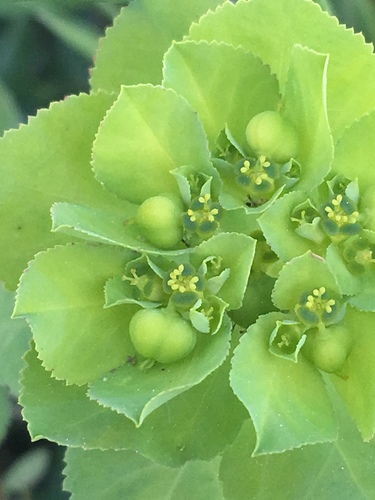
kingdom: Plantae
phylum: Tracheophyta
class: Magnoliopsida
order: Malpighiales
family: Euphorbiaceae
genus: Euphorbia
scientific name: Euphorbia helioscopia
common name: Sun spurge
